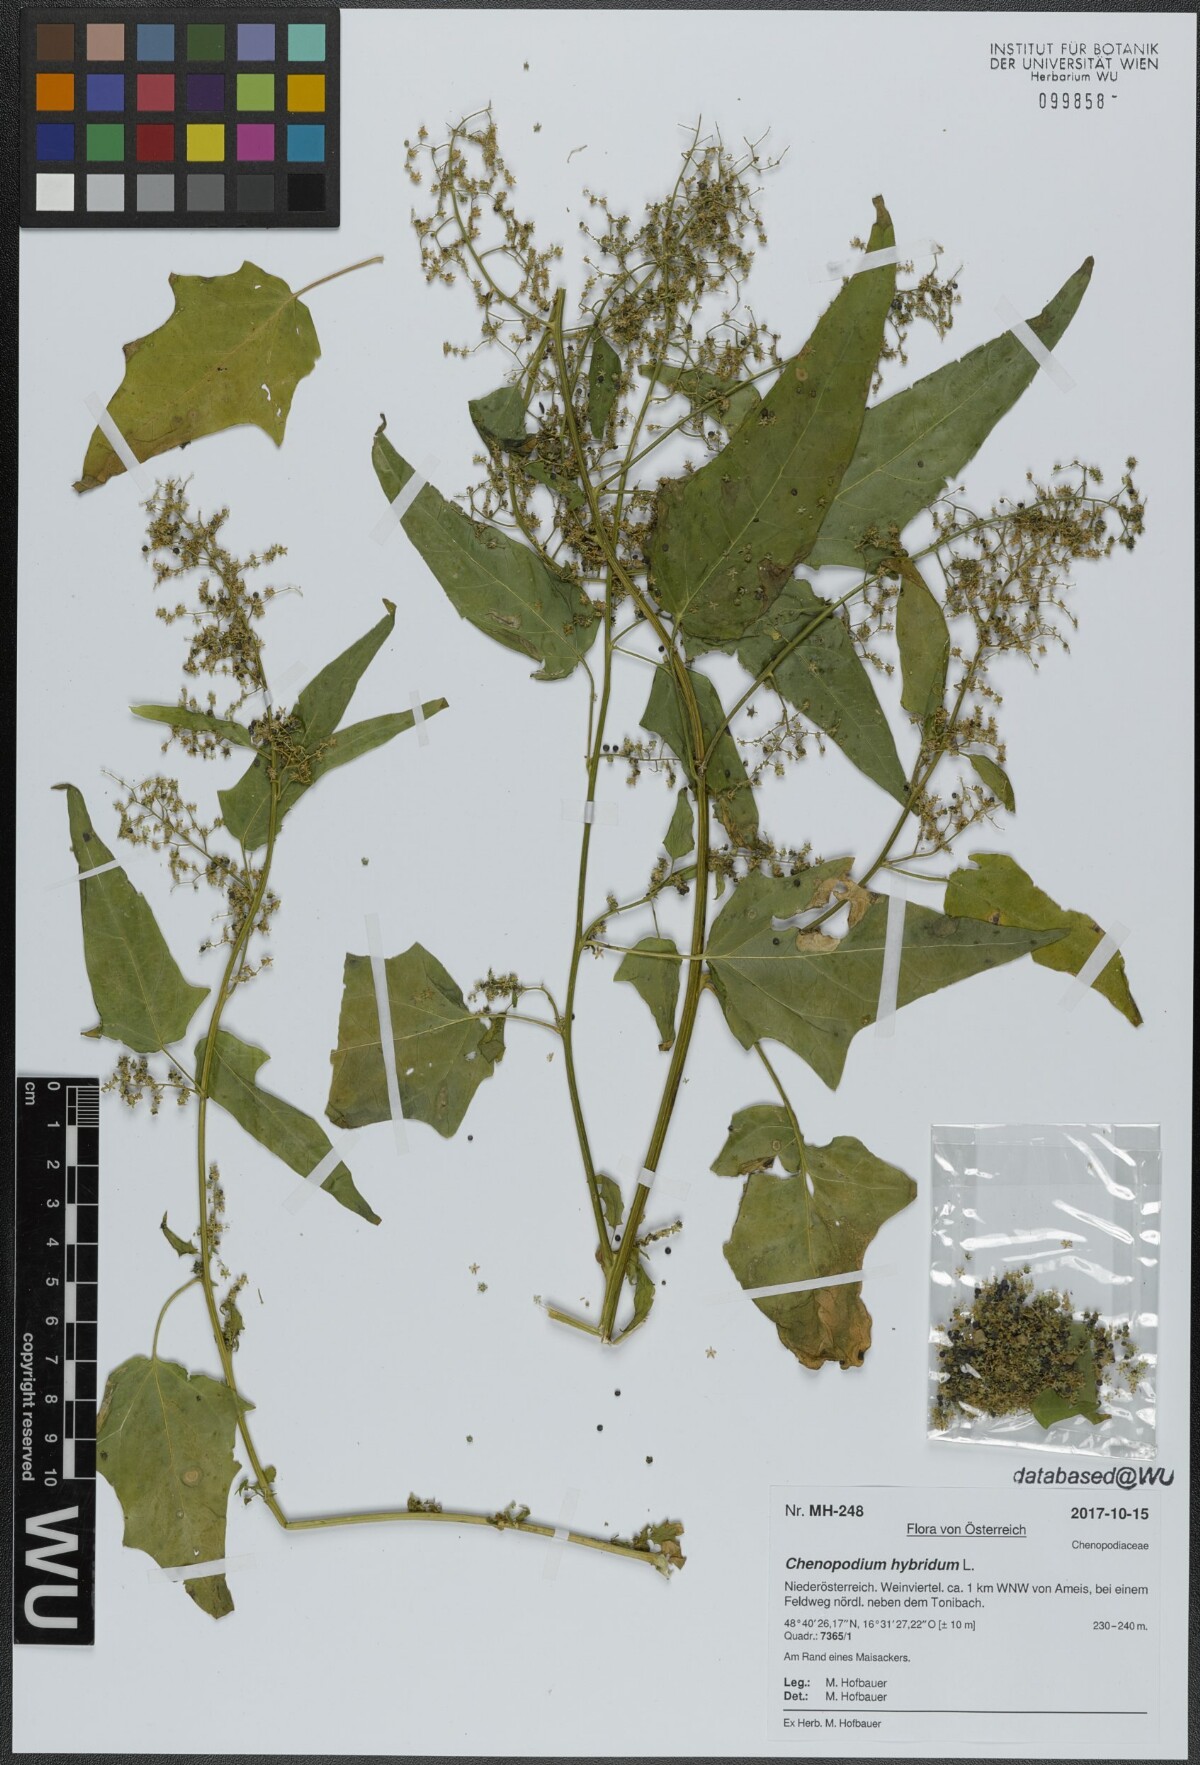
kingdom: Plantae
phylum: Tracheophyta
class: Magnoliopsida
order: Caryophyllales
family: Amaranthaceae
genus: Chenopodiastrum
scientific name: Chenopodiastrum hybridum
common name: Mapleleaf goosefoot
